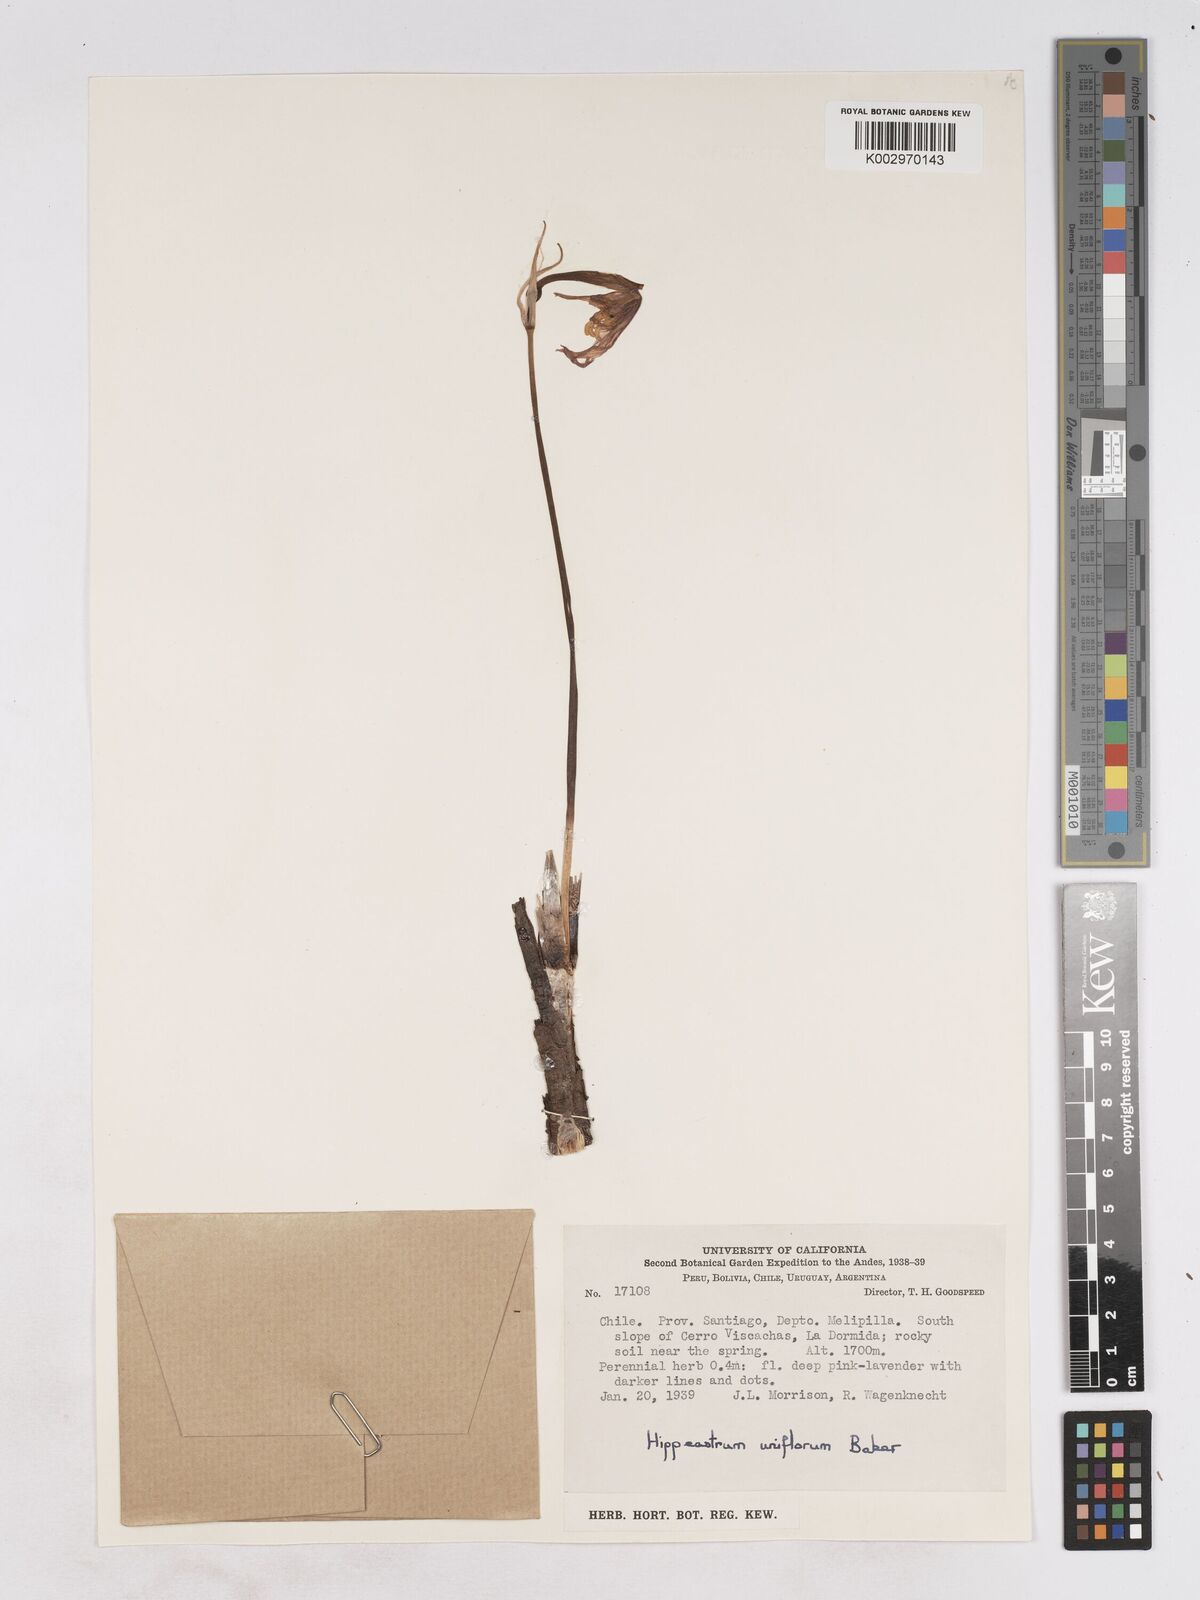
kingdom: Plantae
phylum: Tracheophyta
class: Liliopsida
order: Asparagales
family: Amaryllidaceae
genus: Paposoa
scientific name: Paposoa laeta
